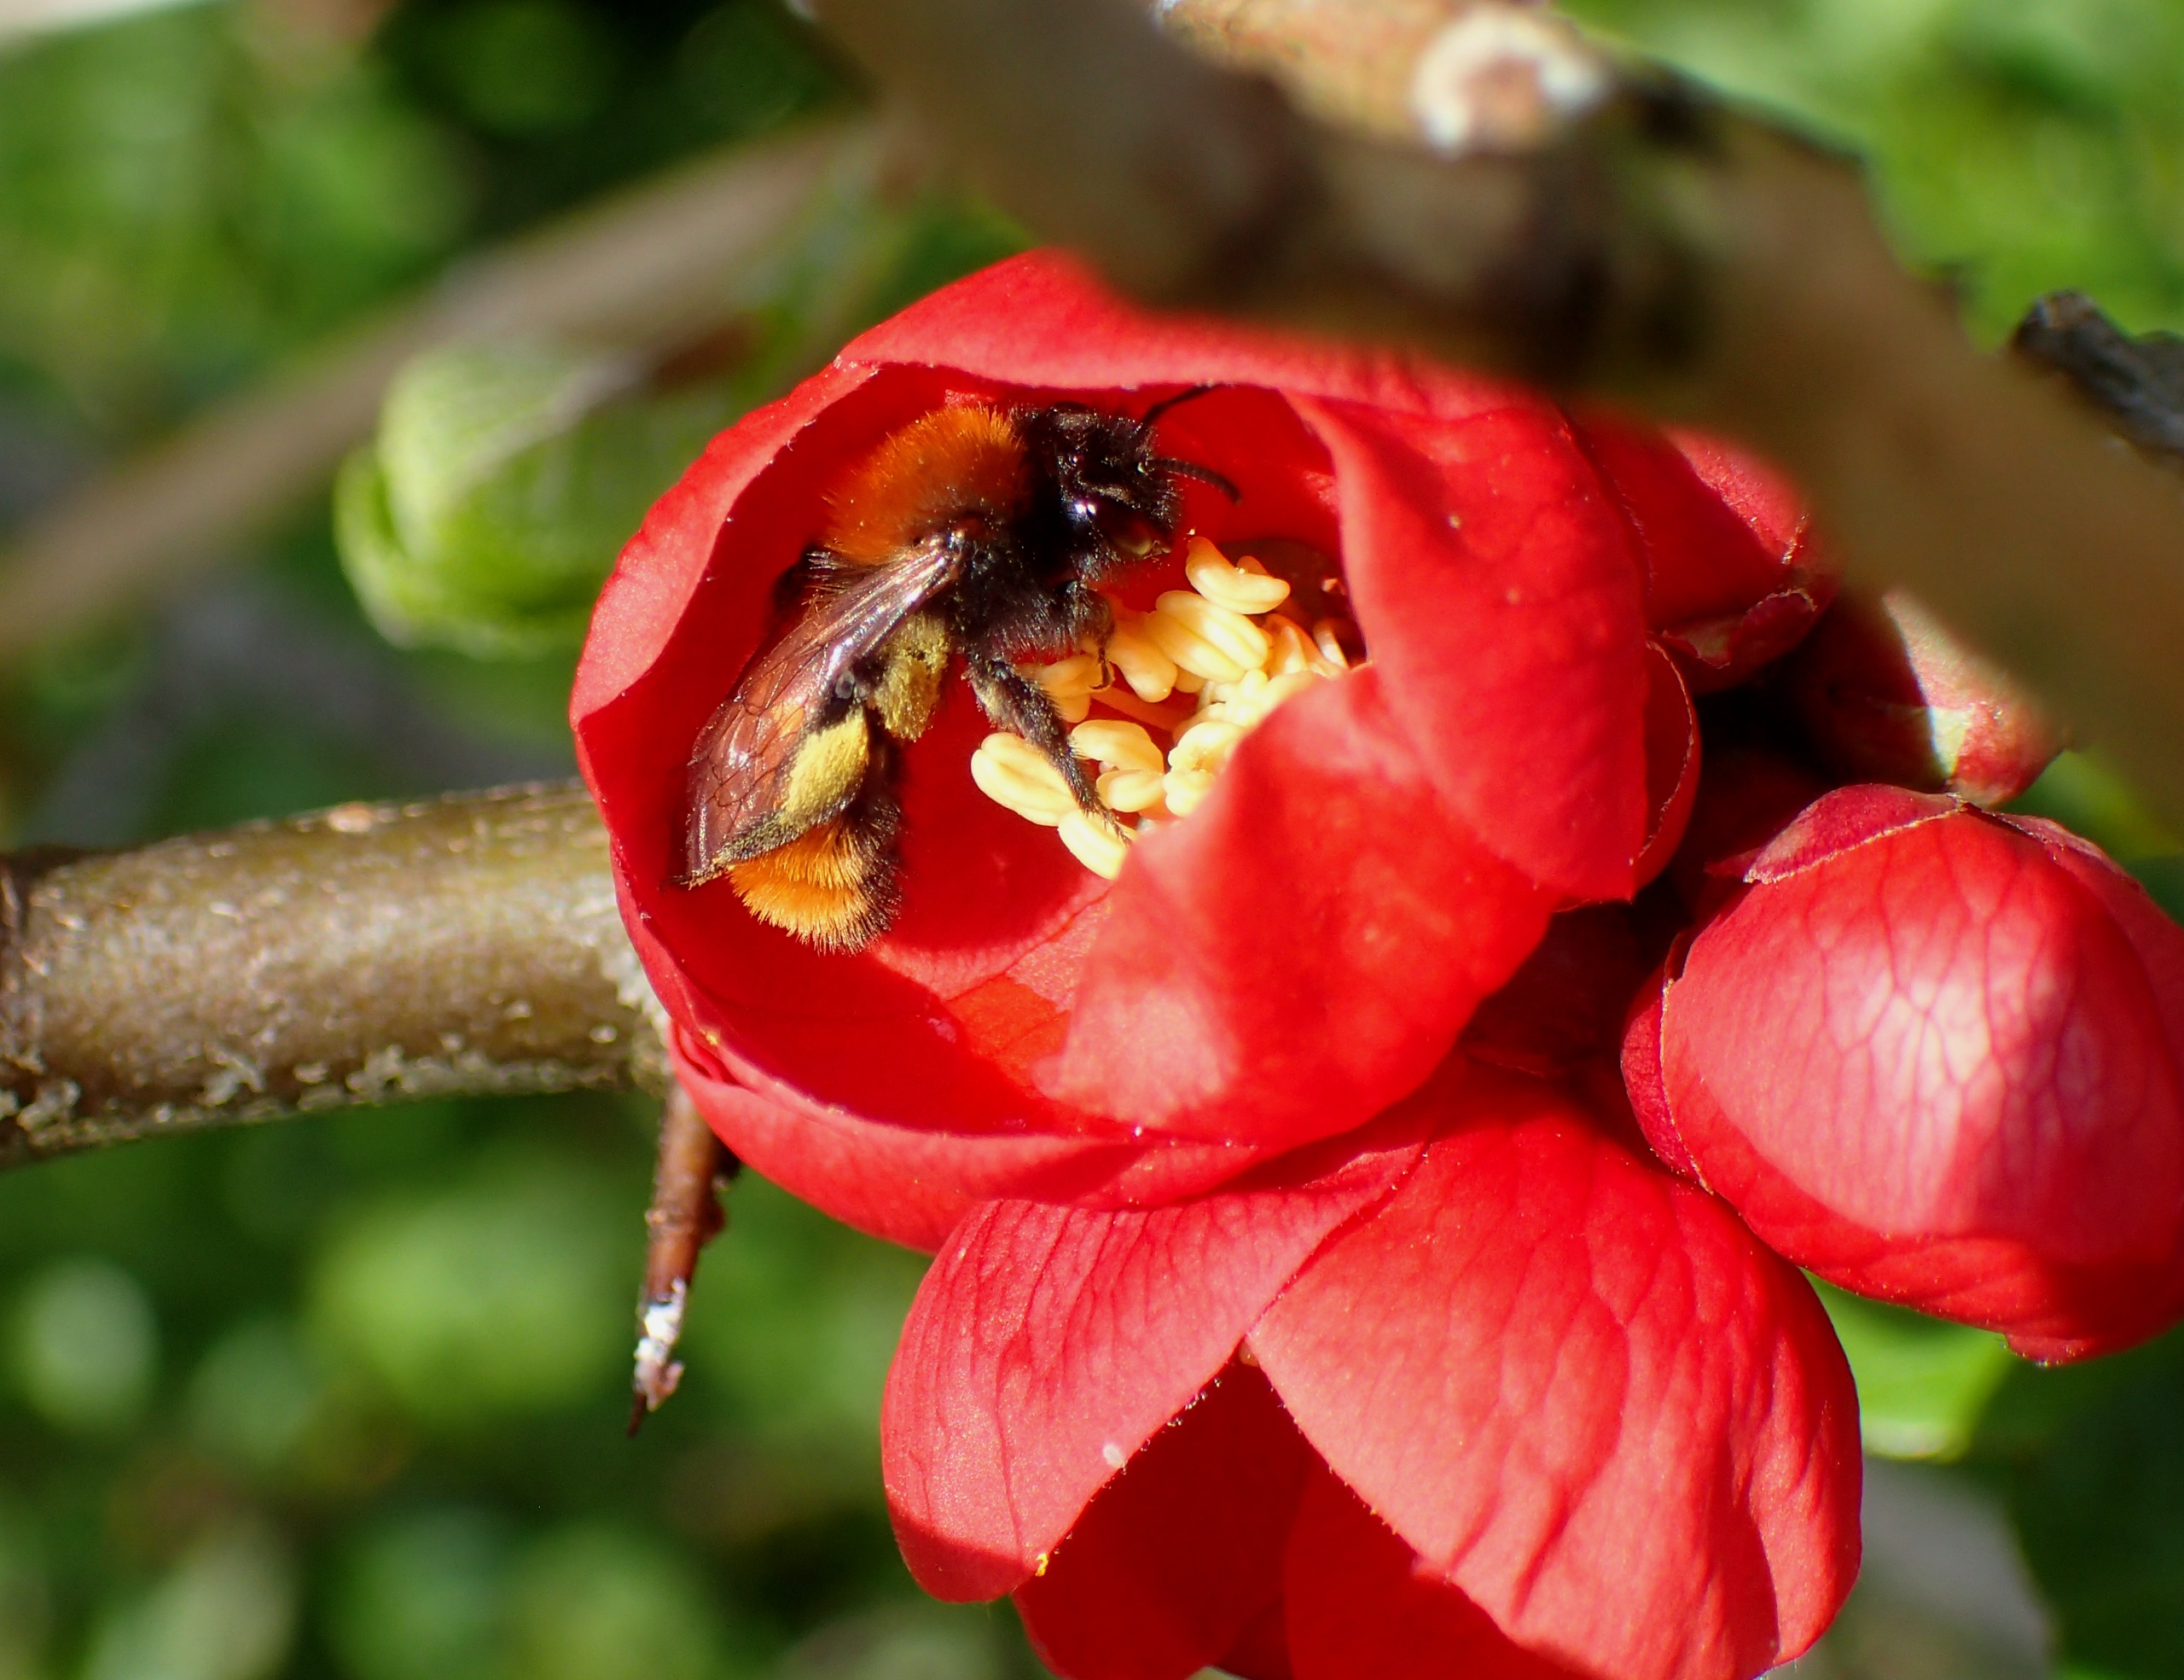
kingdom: Animalia
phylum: Arthropoda
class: Insecta
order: Hymenoptera
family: Andrenidae
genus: Andrena
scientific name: Andrena fulva
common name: Rødpelset jordbi
